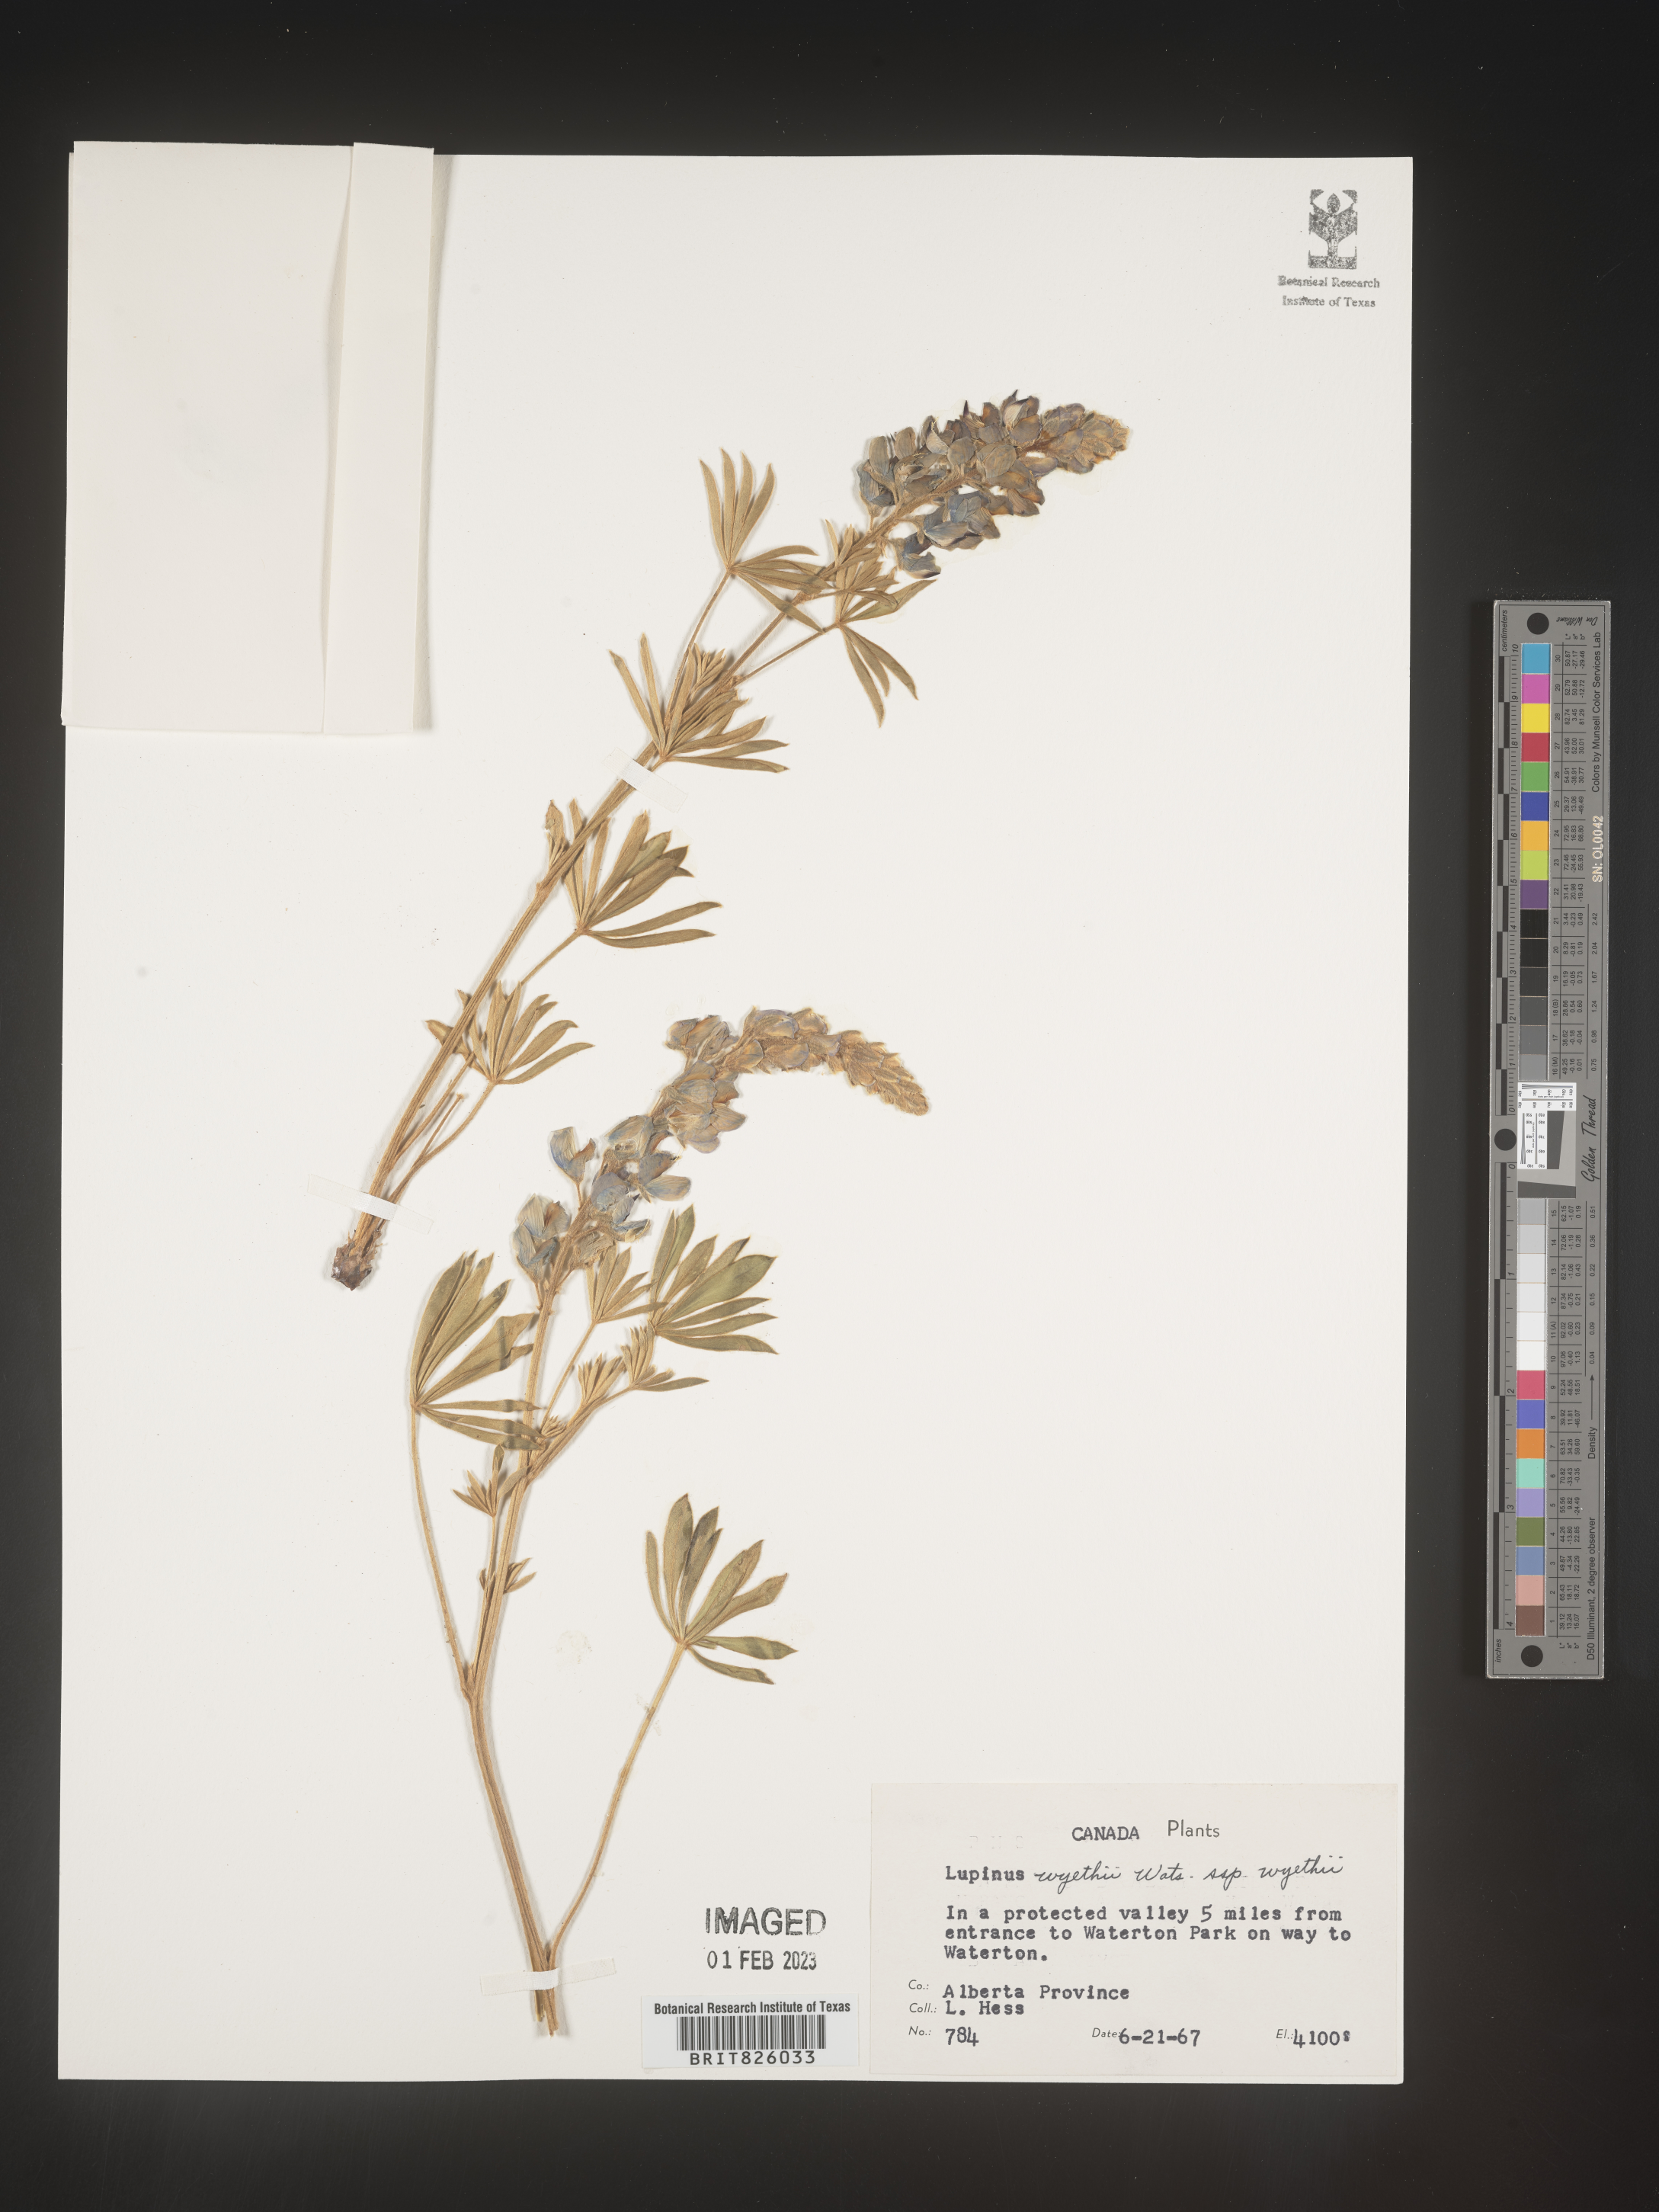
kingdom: Plantae
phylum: Tracheophyta
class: Magnoliopsida
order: Fabales
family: Fabaceae
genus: Lupinus
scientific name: Lupinus
